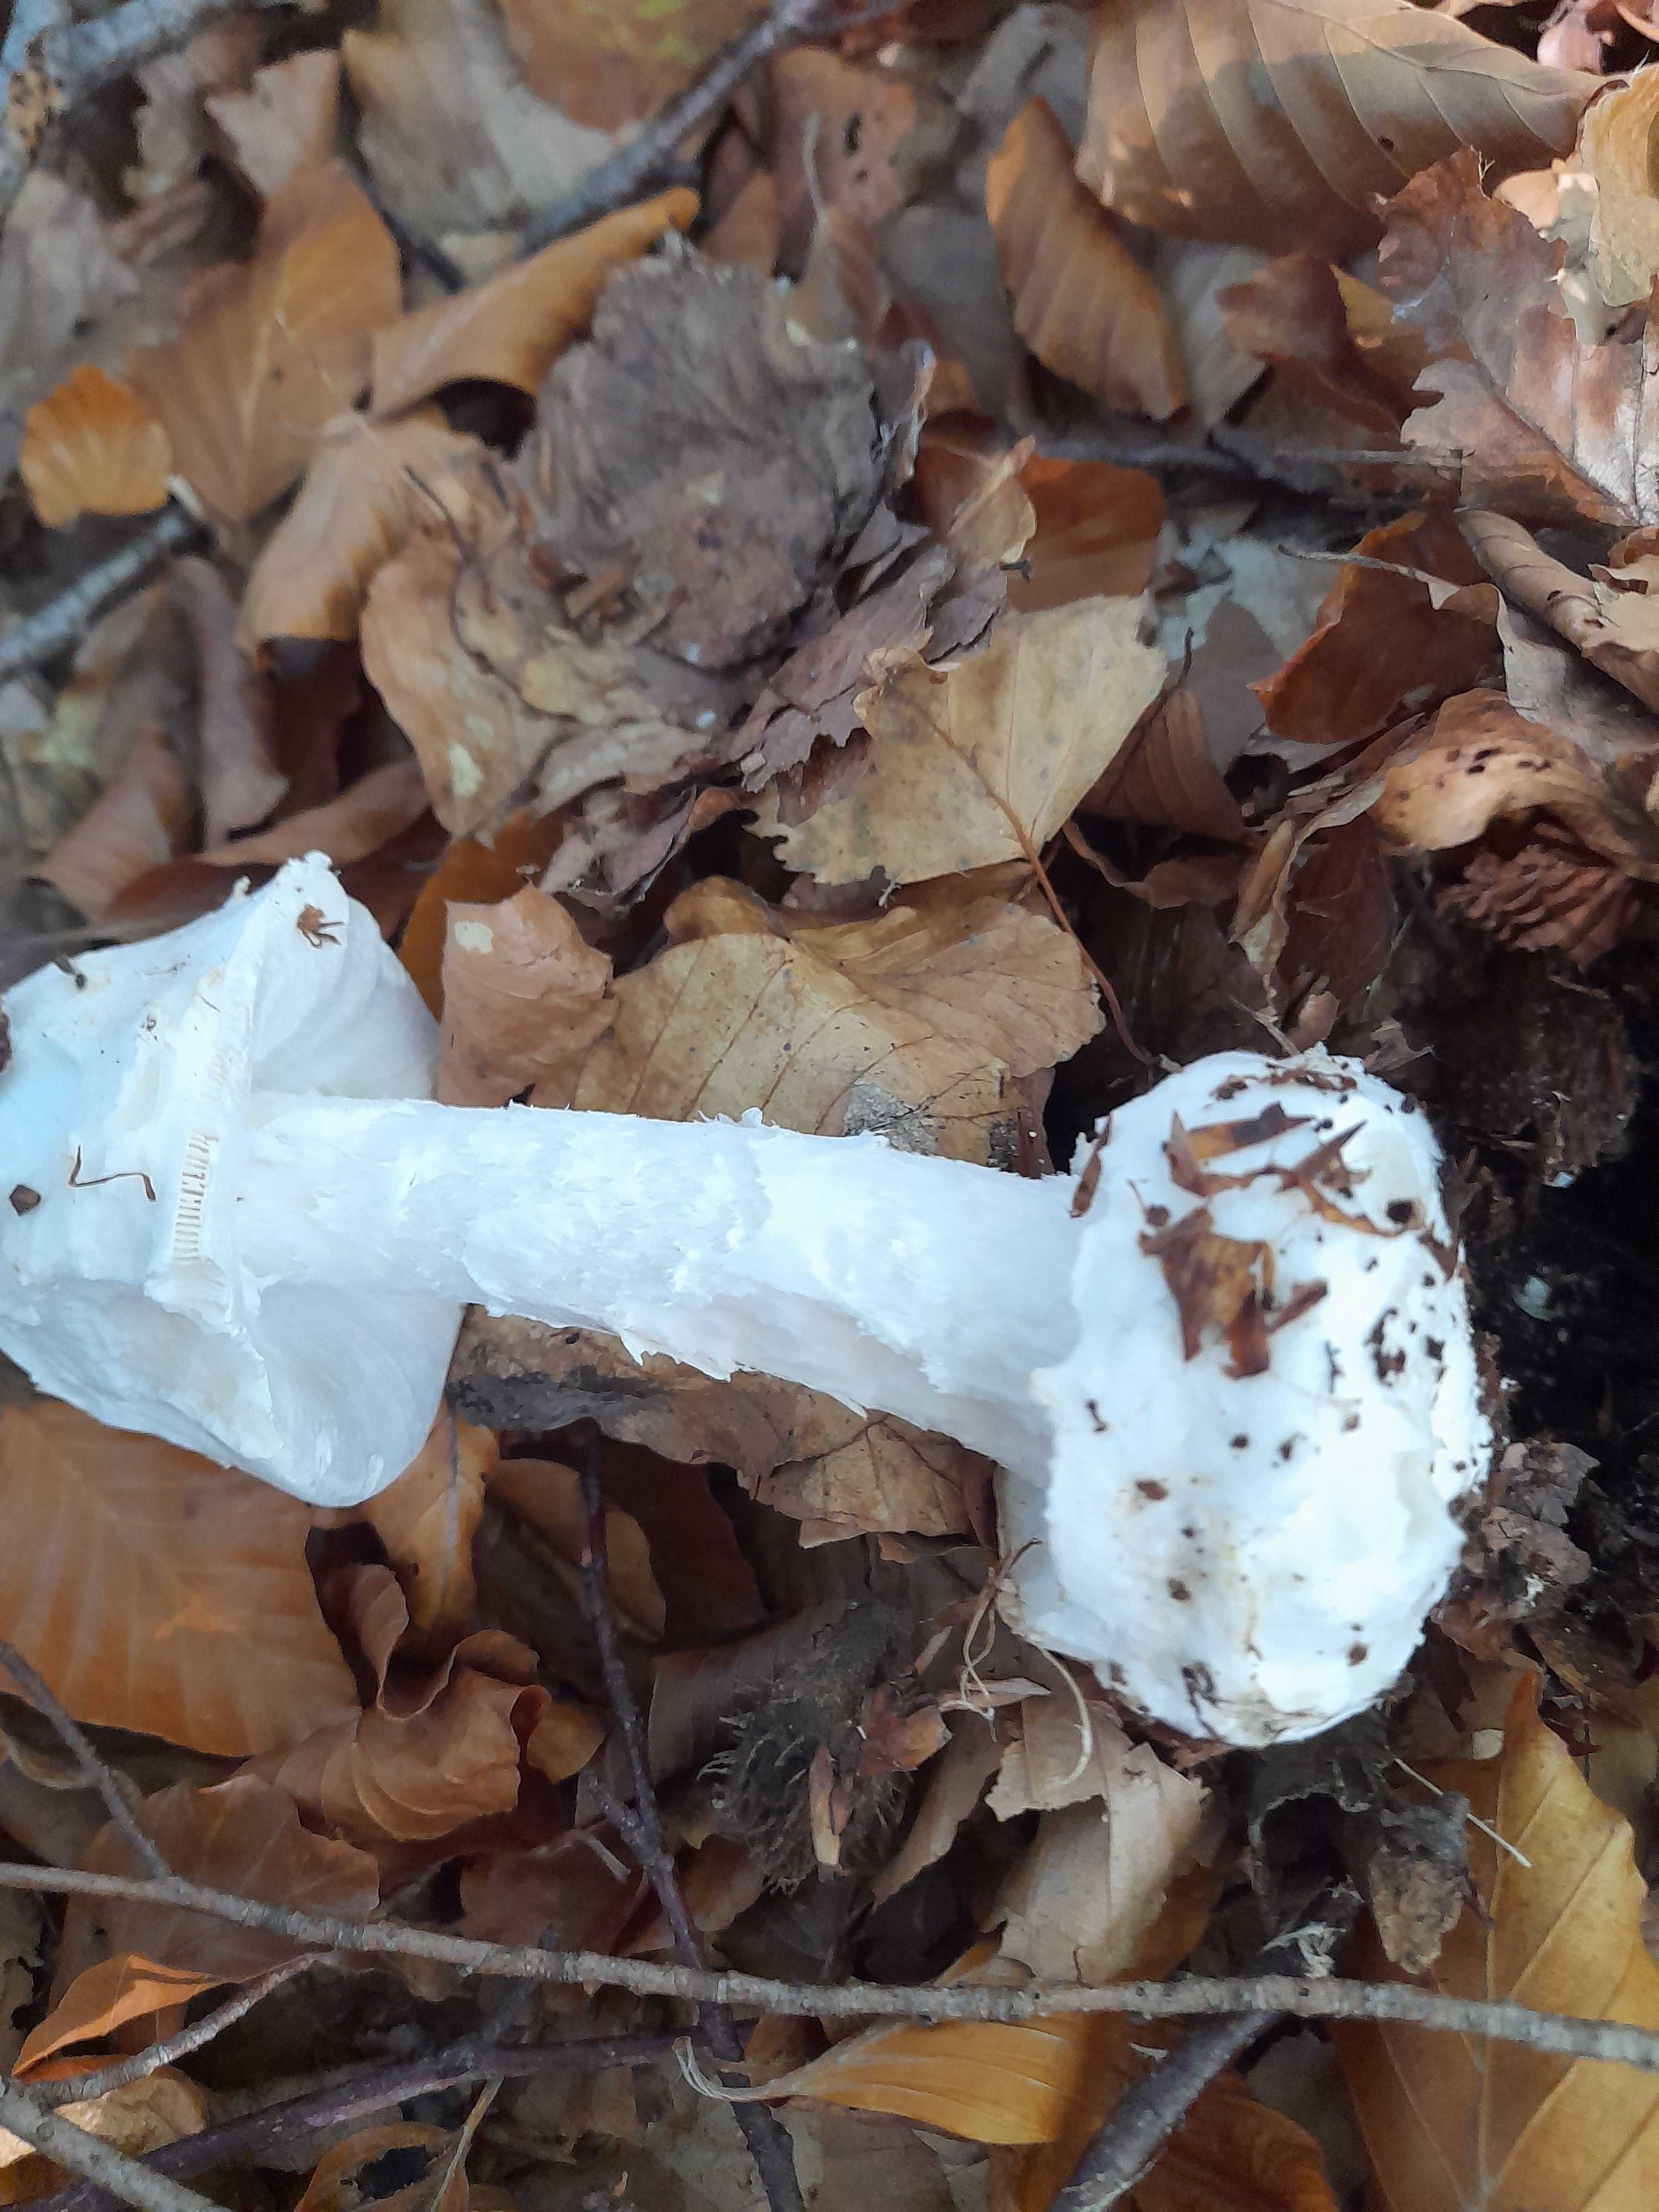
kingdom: Fungi
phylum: Basidiomycota
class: Agaricomycetes
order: Agaricales
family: Amanitaceae
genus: Amanita
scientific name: Amanita virosa
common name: snehvid fluesvamp
